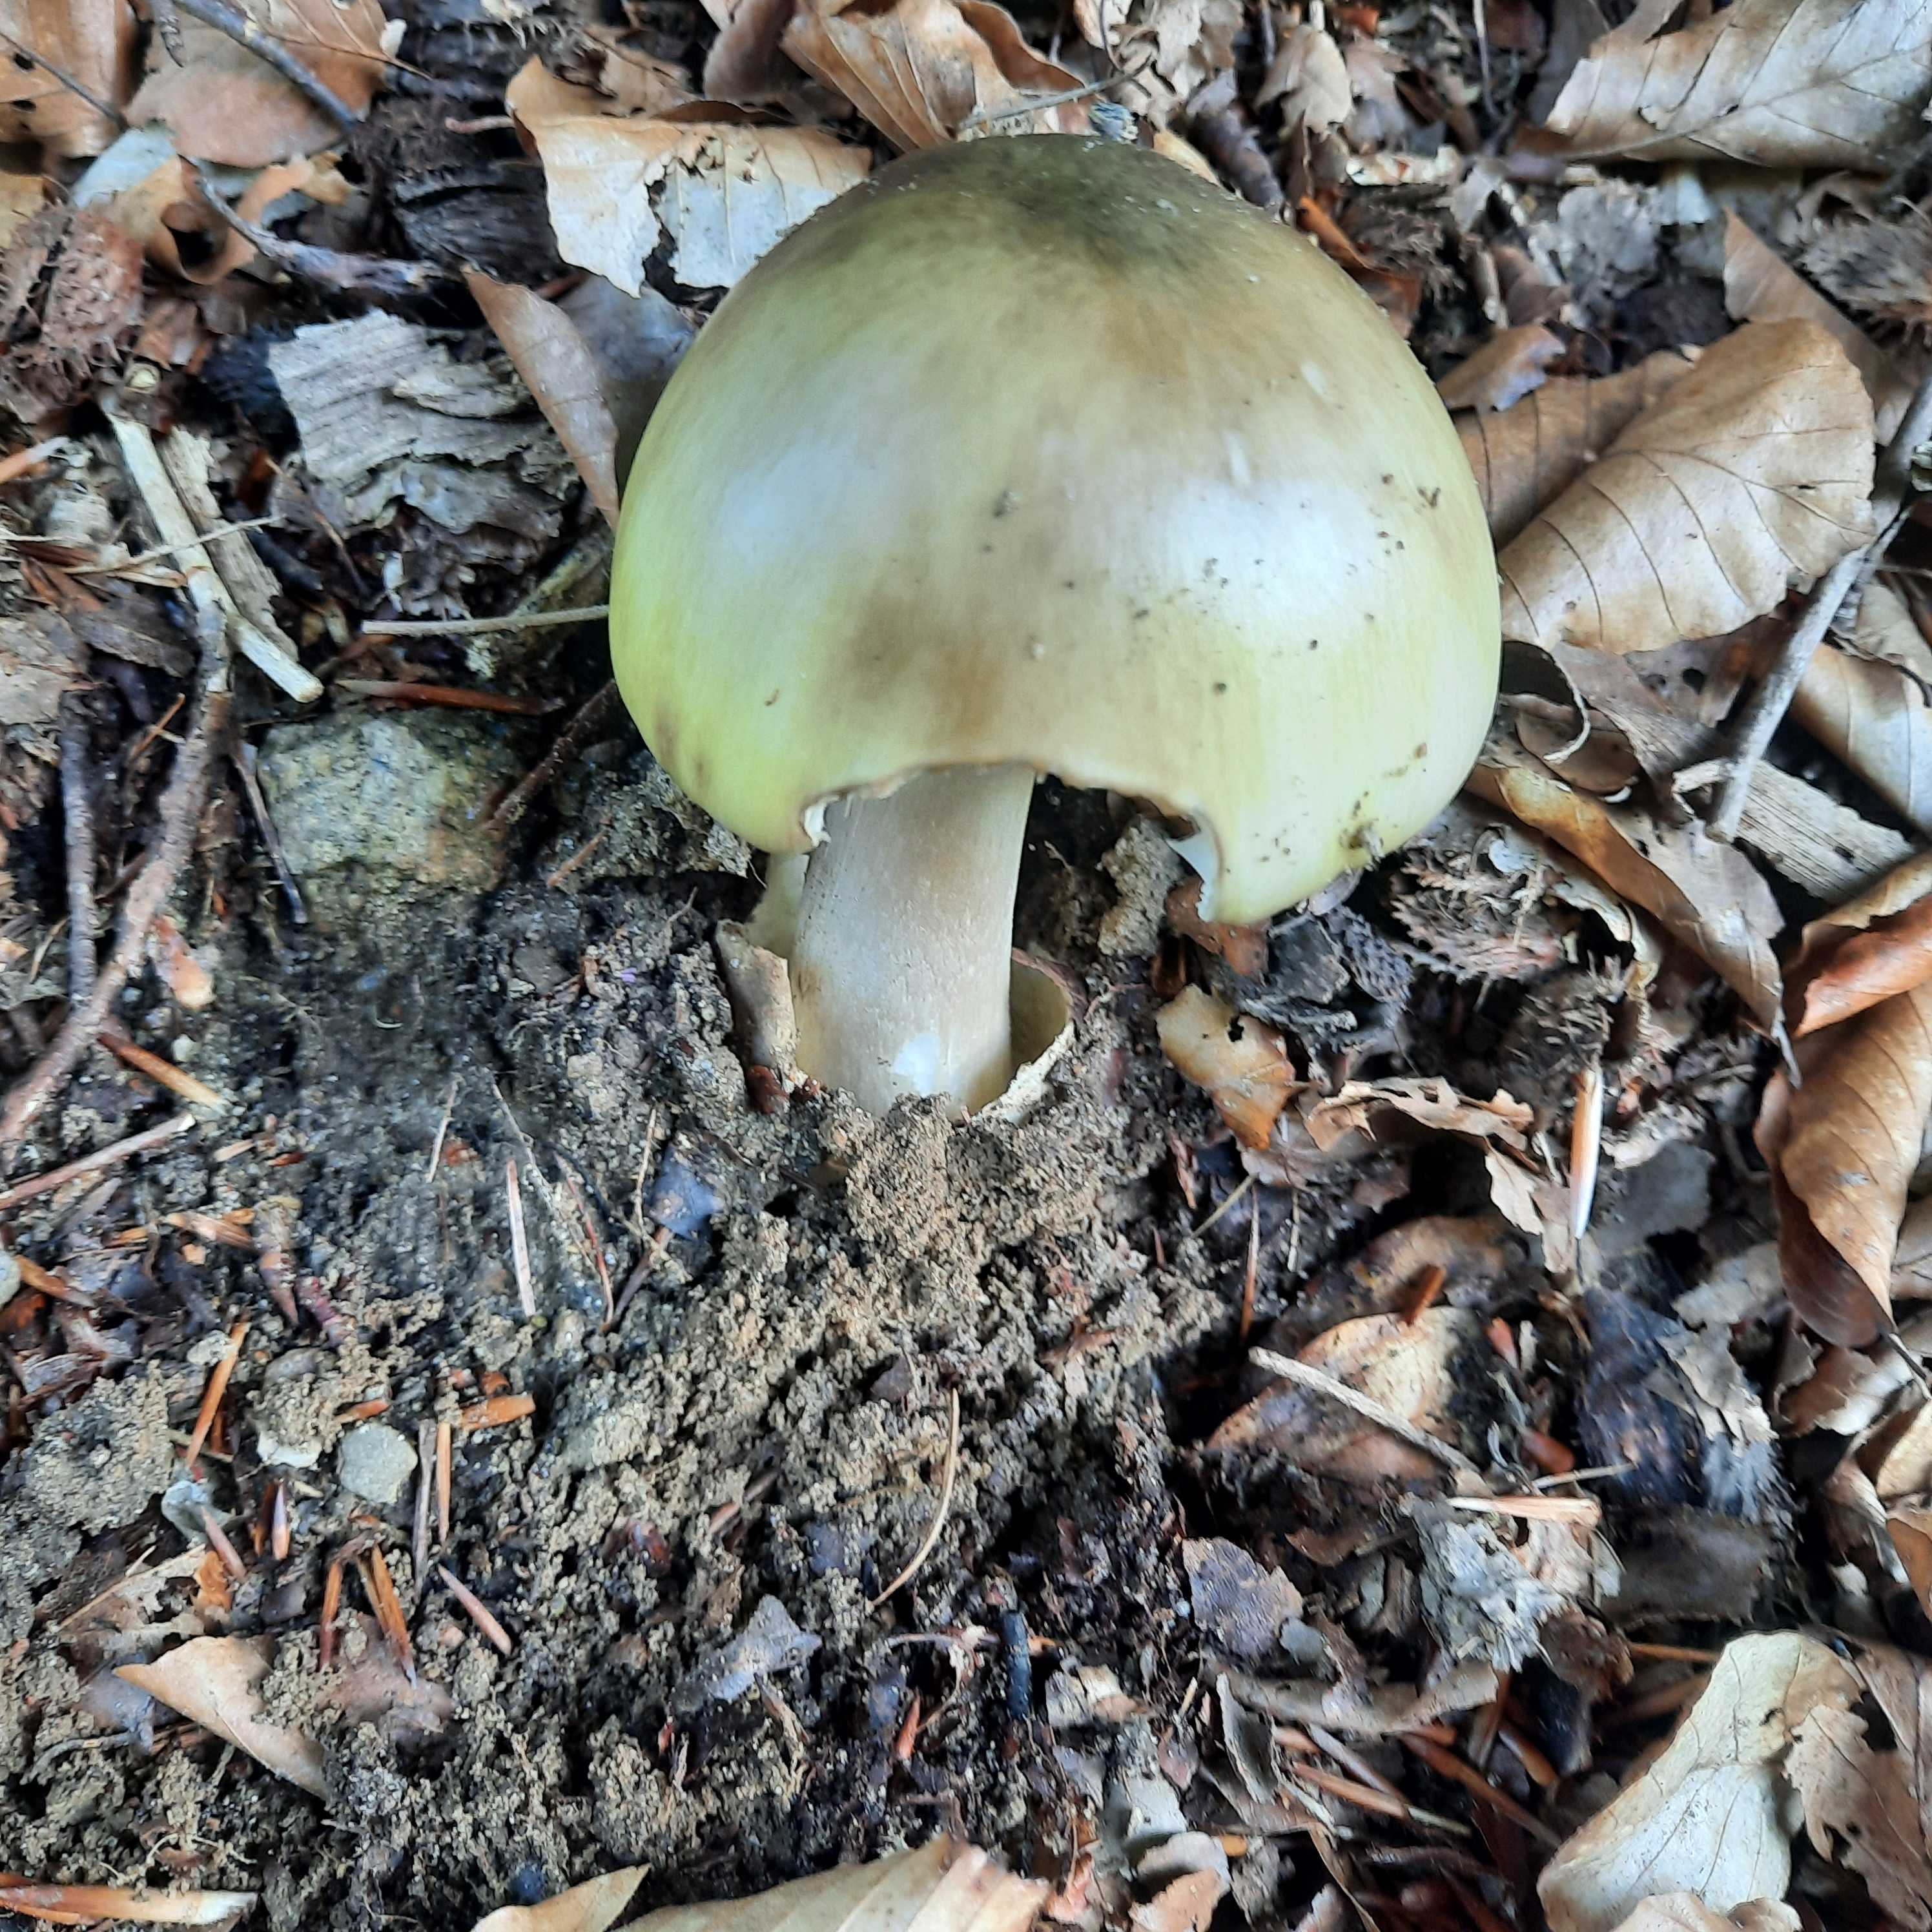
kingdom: Fungi
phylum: Basidiomycota
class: Agaricomycetes
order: Agaricales
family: Amanitaceae
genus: Amanita
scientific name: Amanita phalloides
